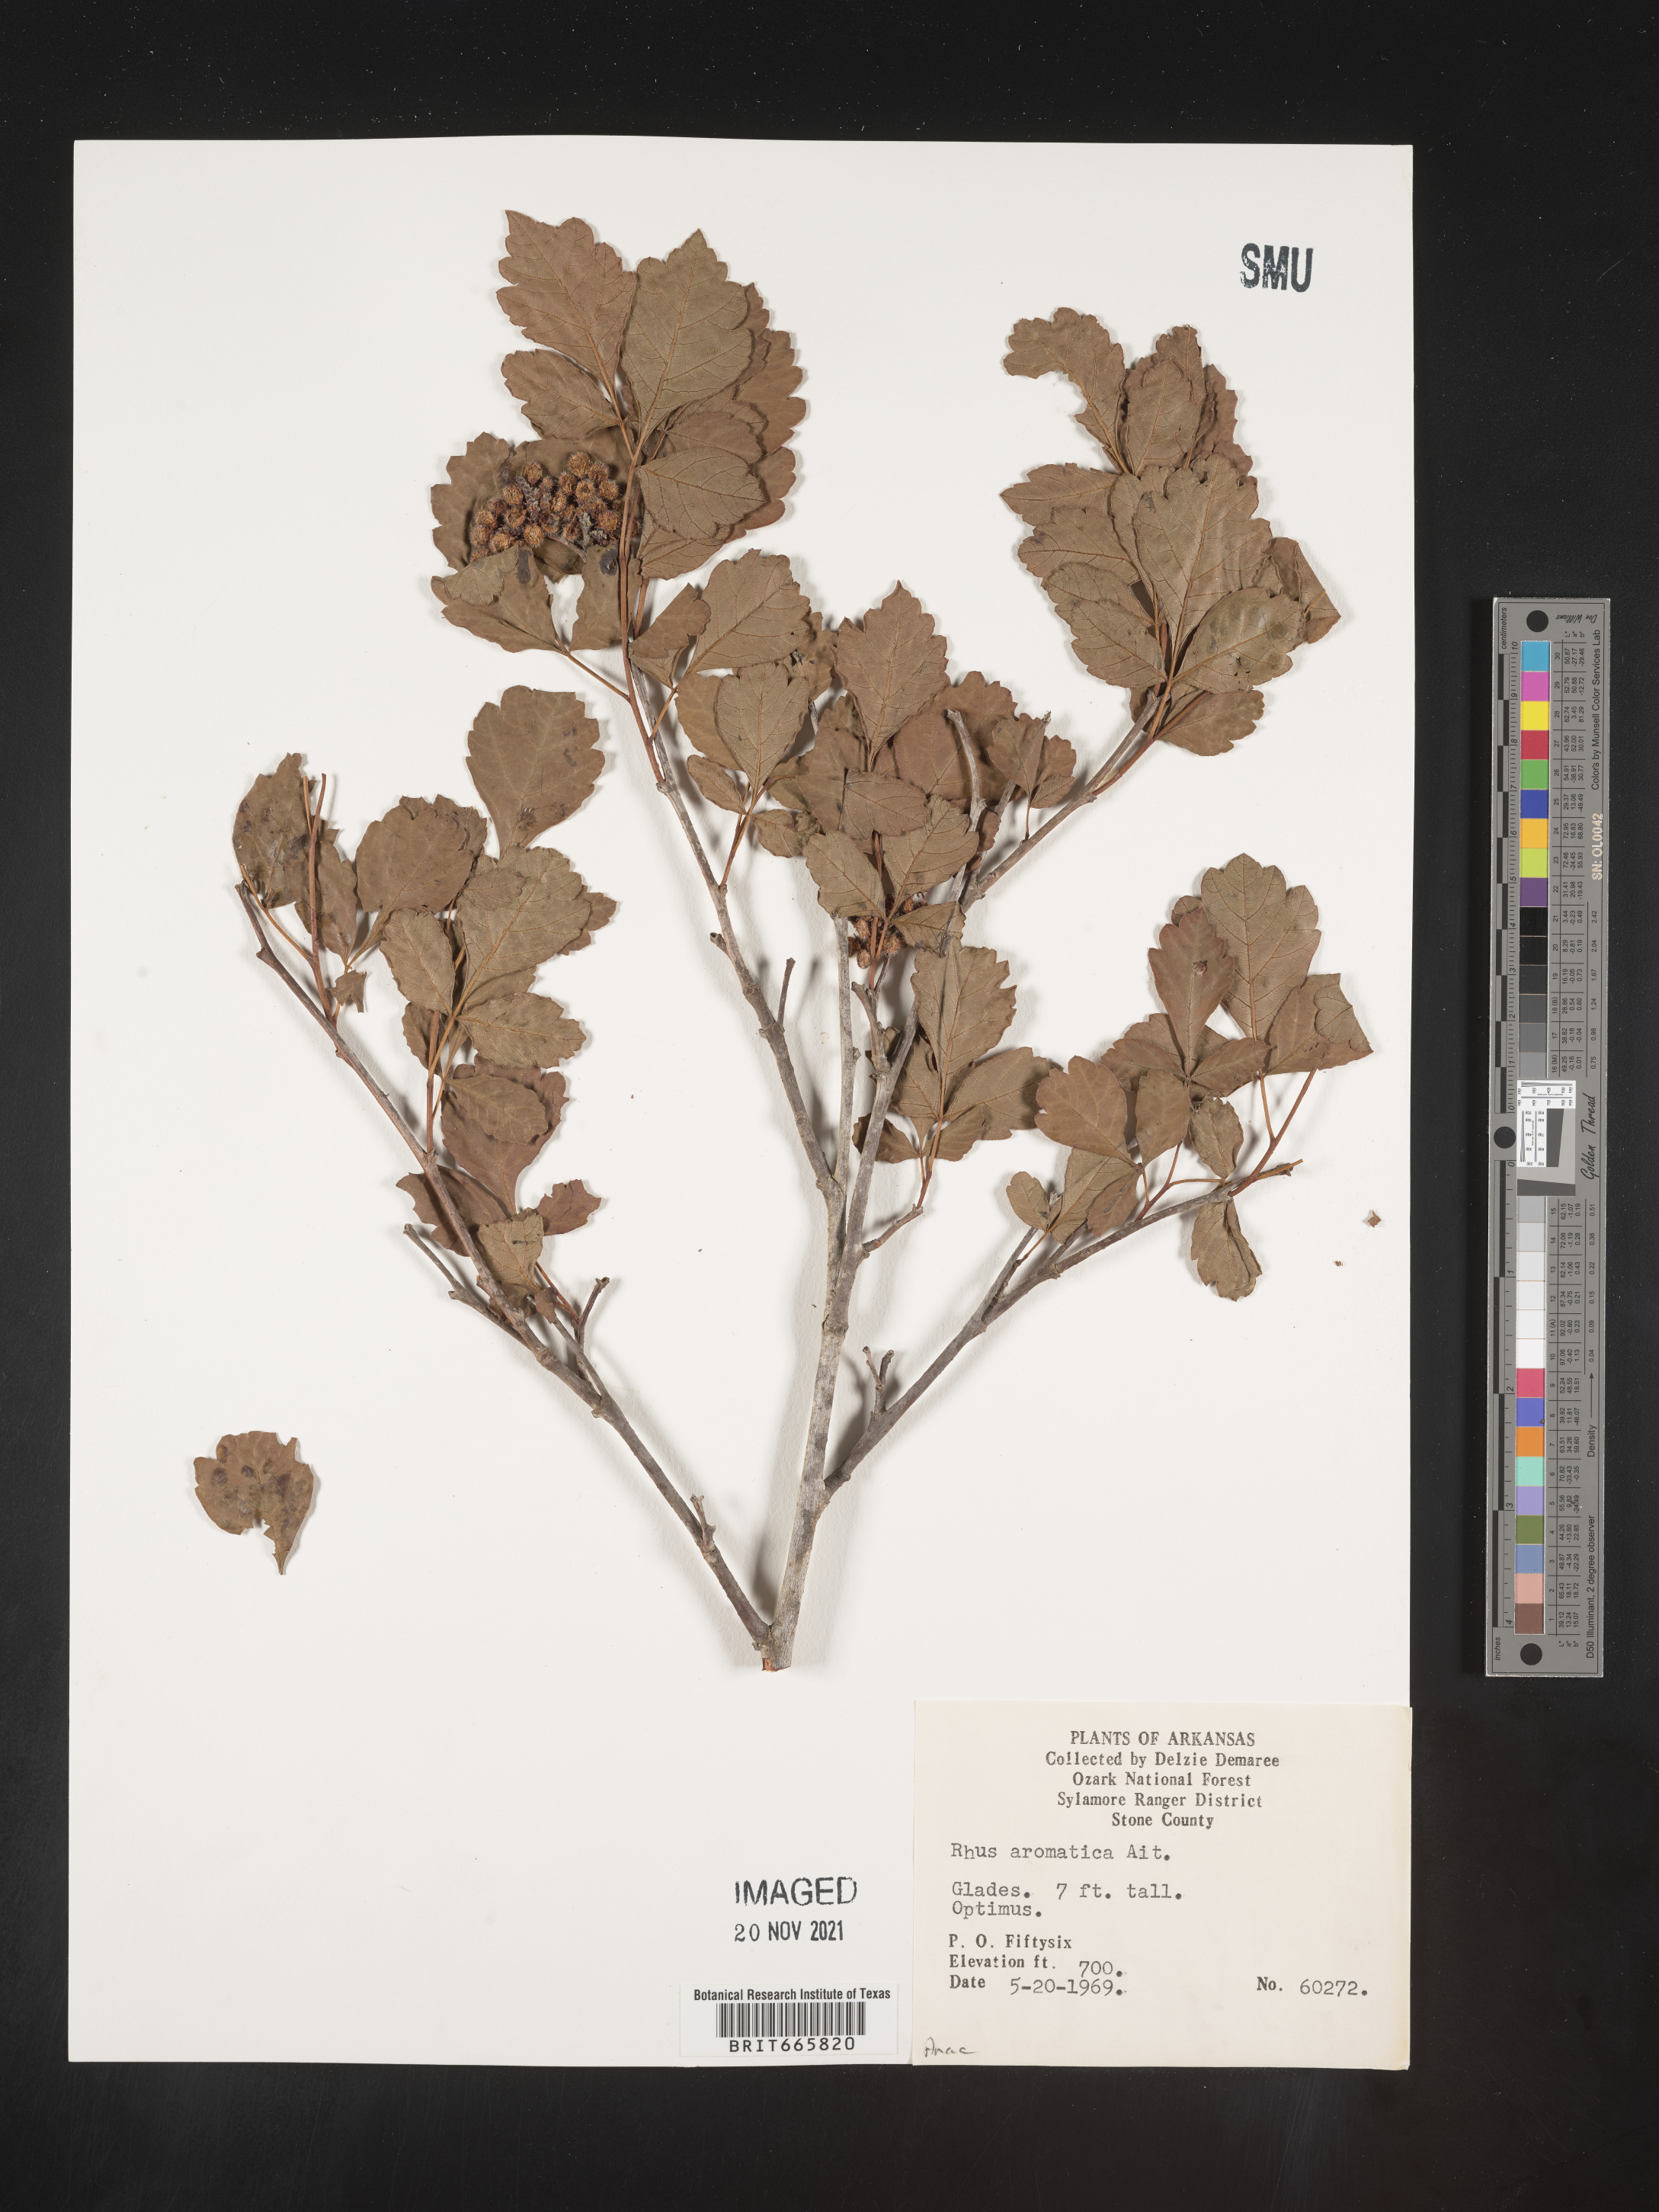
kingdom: Plantae
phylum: Tracheophyta
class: Magnoliopsida
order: Sapindales
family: Anacardiaceae
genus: Rhus
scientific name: Rhus aromatica
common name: Aromatic sumac
